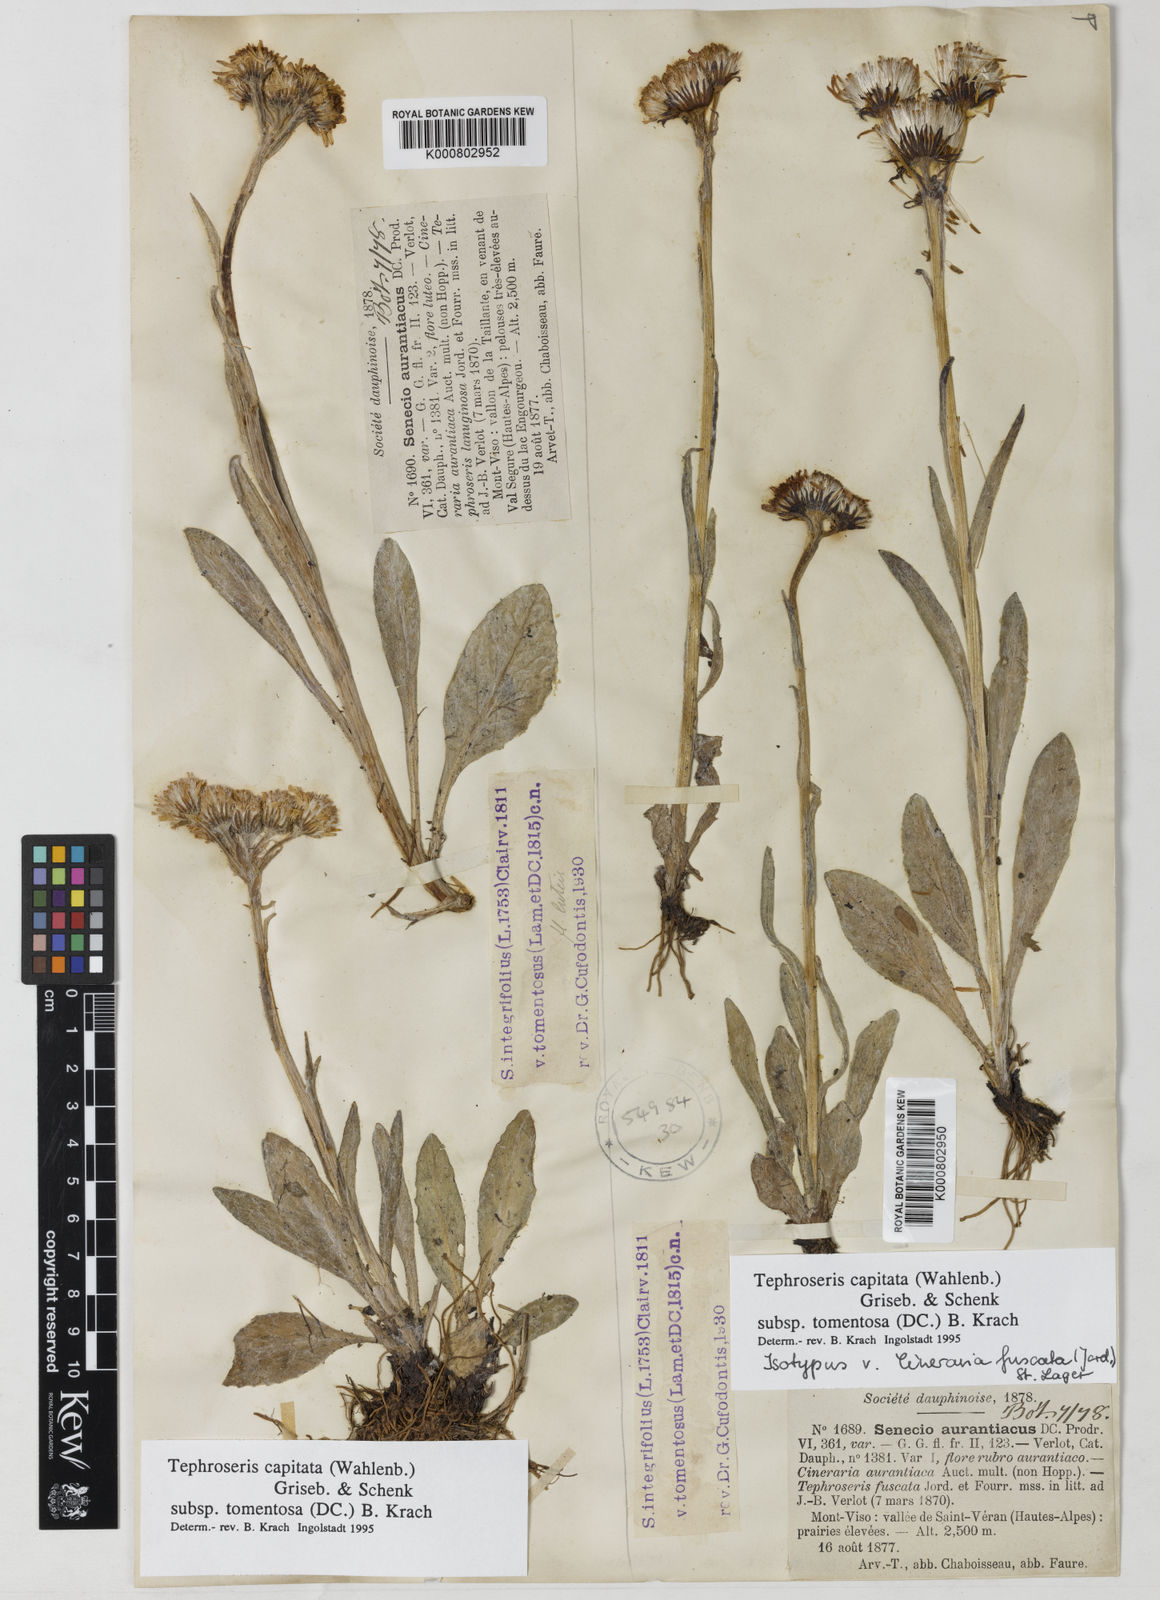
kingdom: Plantae
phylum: Tracheophyta
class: Magnoliopsida
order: Asterales
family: Asteraceae
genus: Tephroseris
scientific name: Tephroseris integrifolia
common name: Field fleawort
